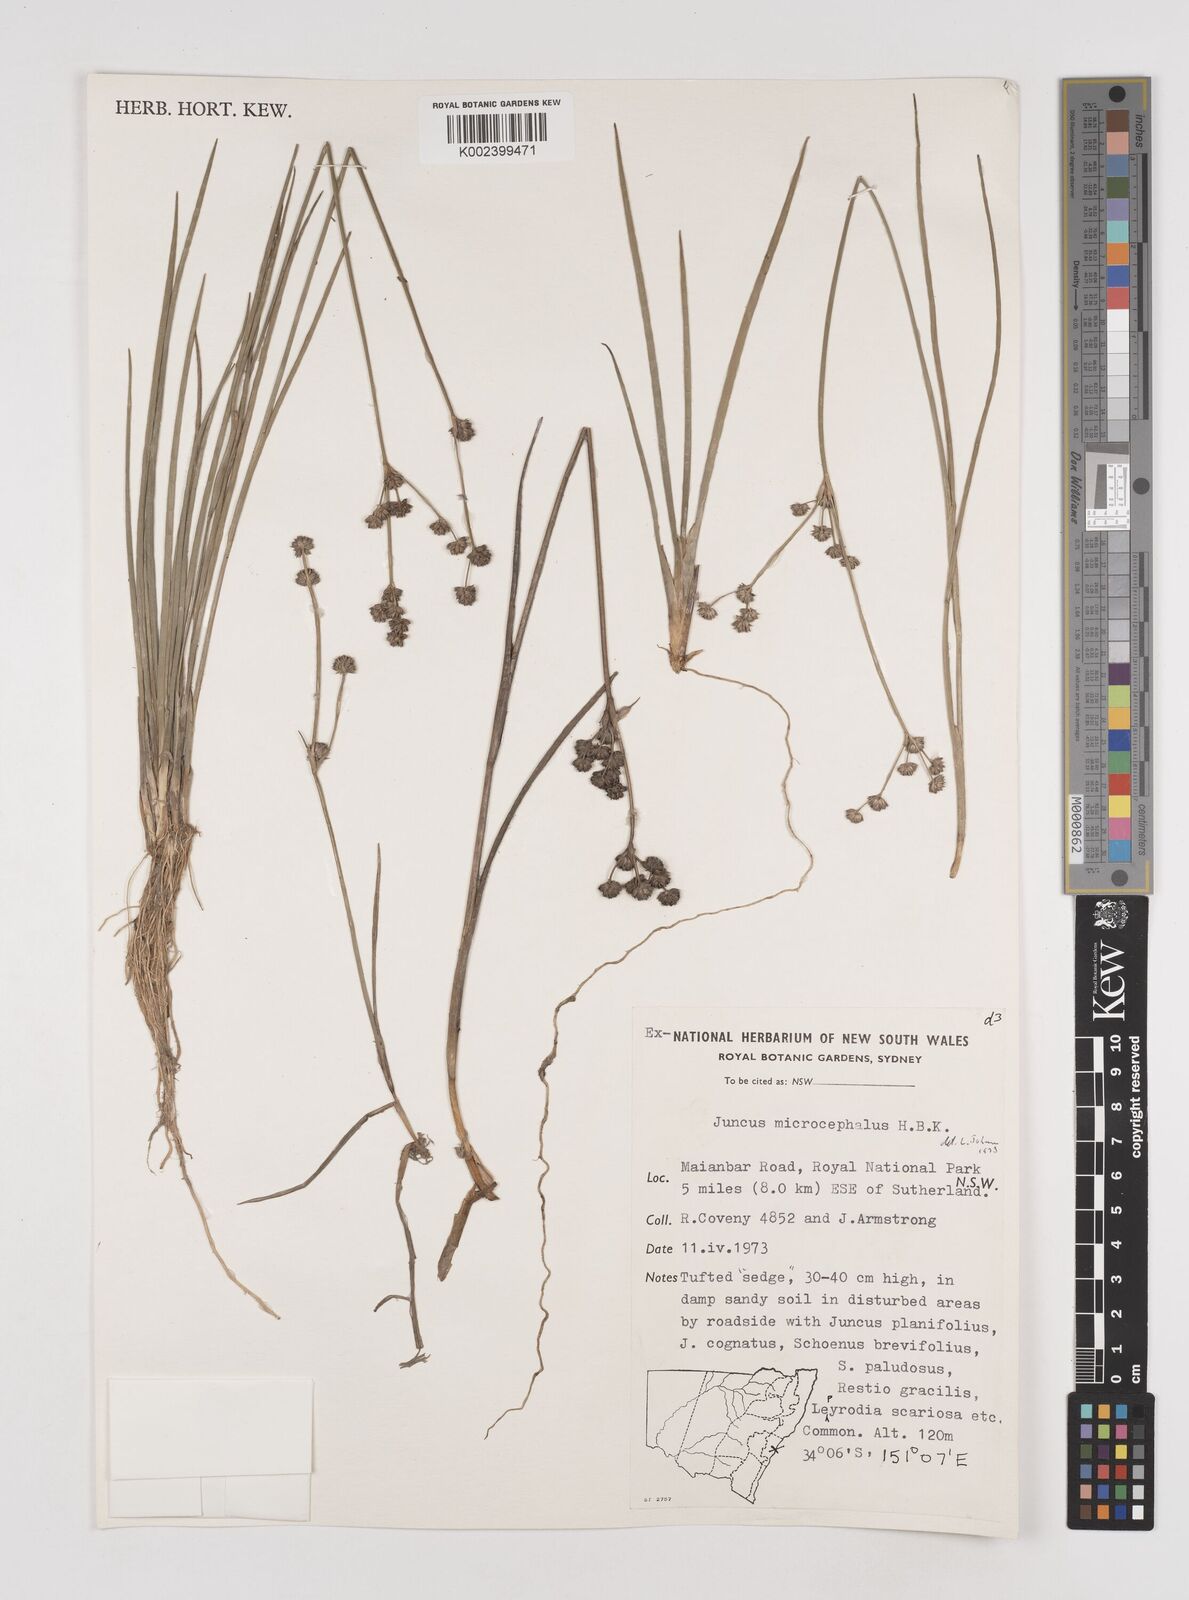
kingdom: Plantae
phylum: Tracheophyta
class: Liliopsida
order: Poales
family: Juncaceae
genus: Juncus
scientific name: Juncus microcephalus
